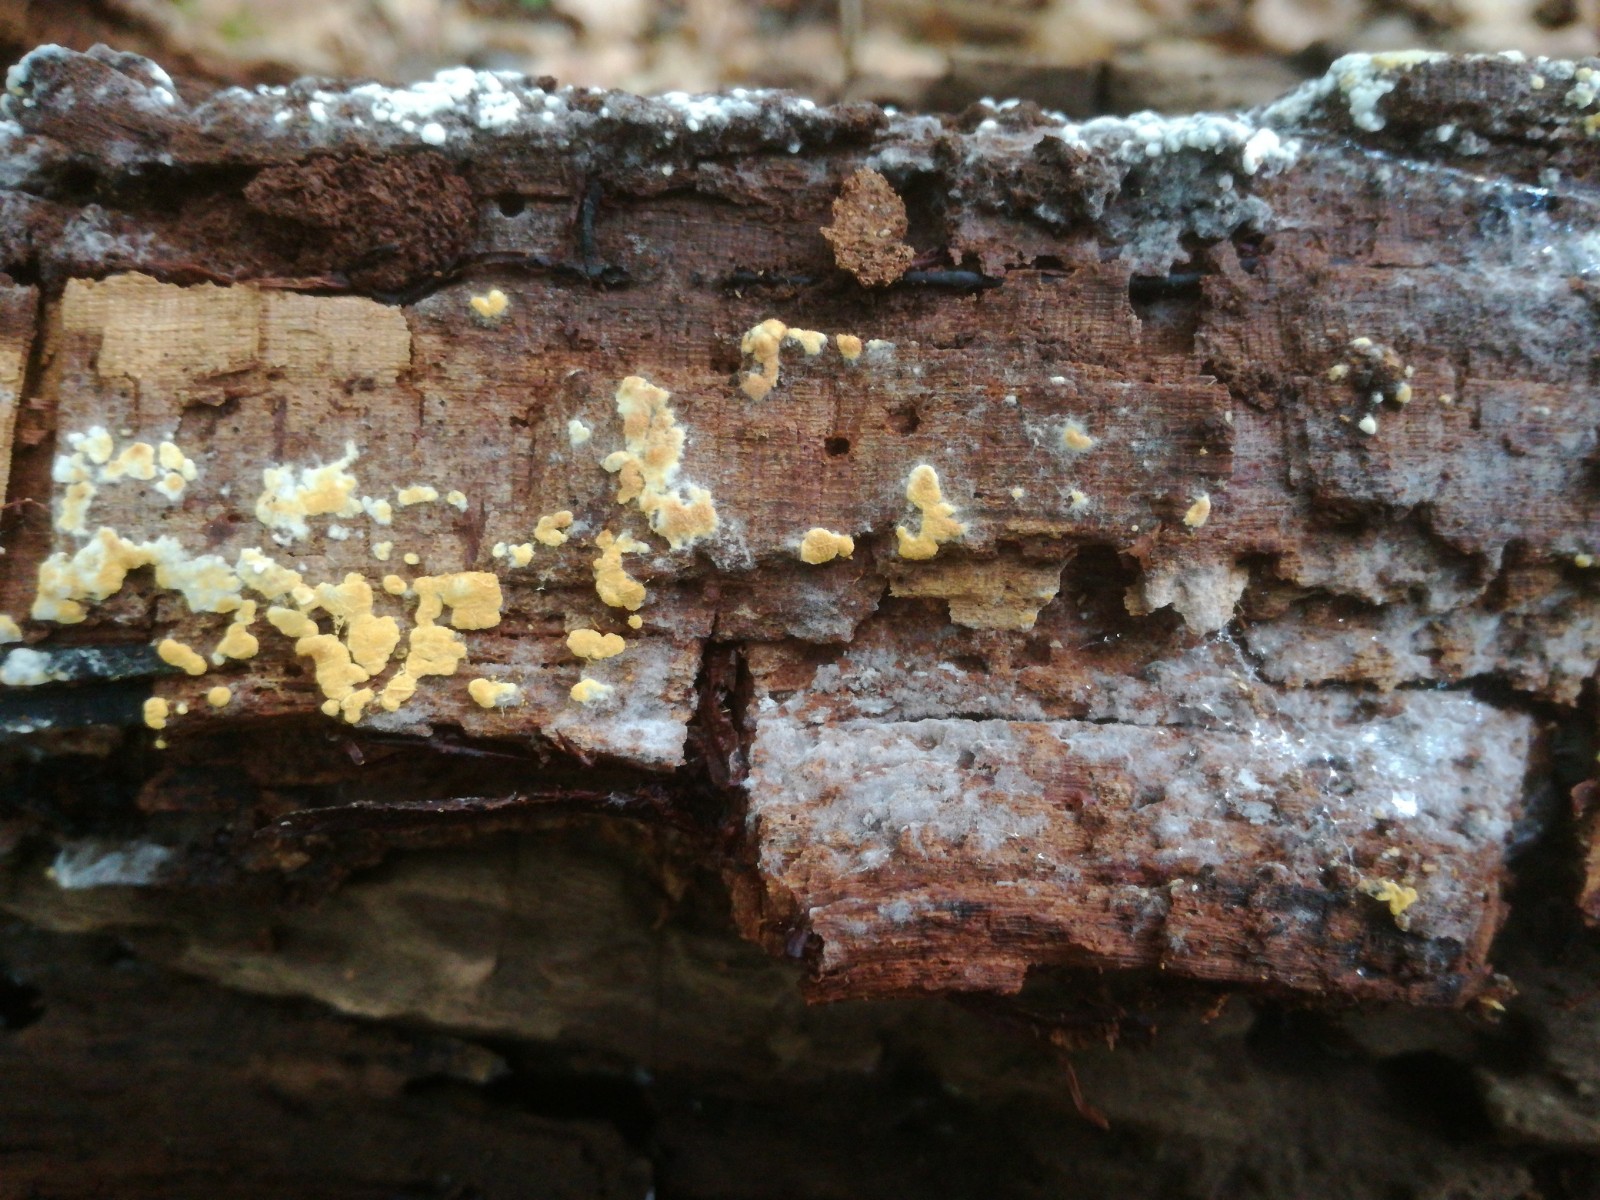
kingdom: Fungi
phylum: Basidiomycota
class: Agaricomycetes
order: Cantharellales
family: Botryobasidiaceae
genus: Botryobasidium
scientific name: Botryobasidium aureum
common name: gylden spindhinde
